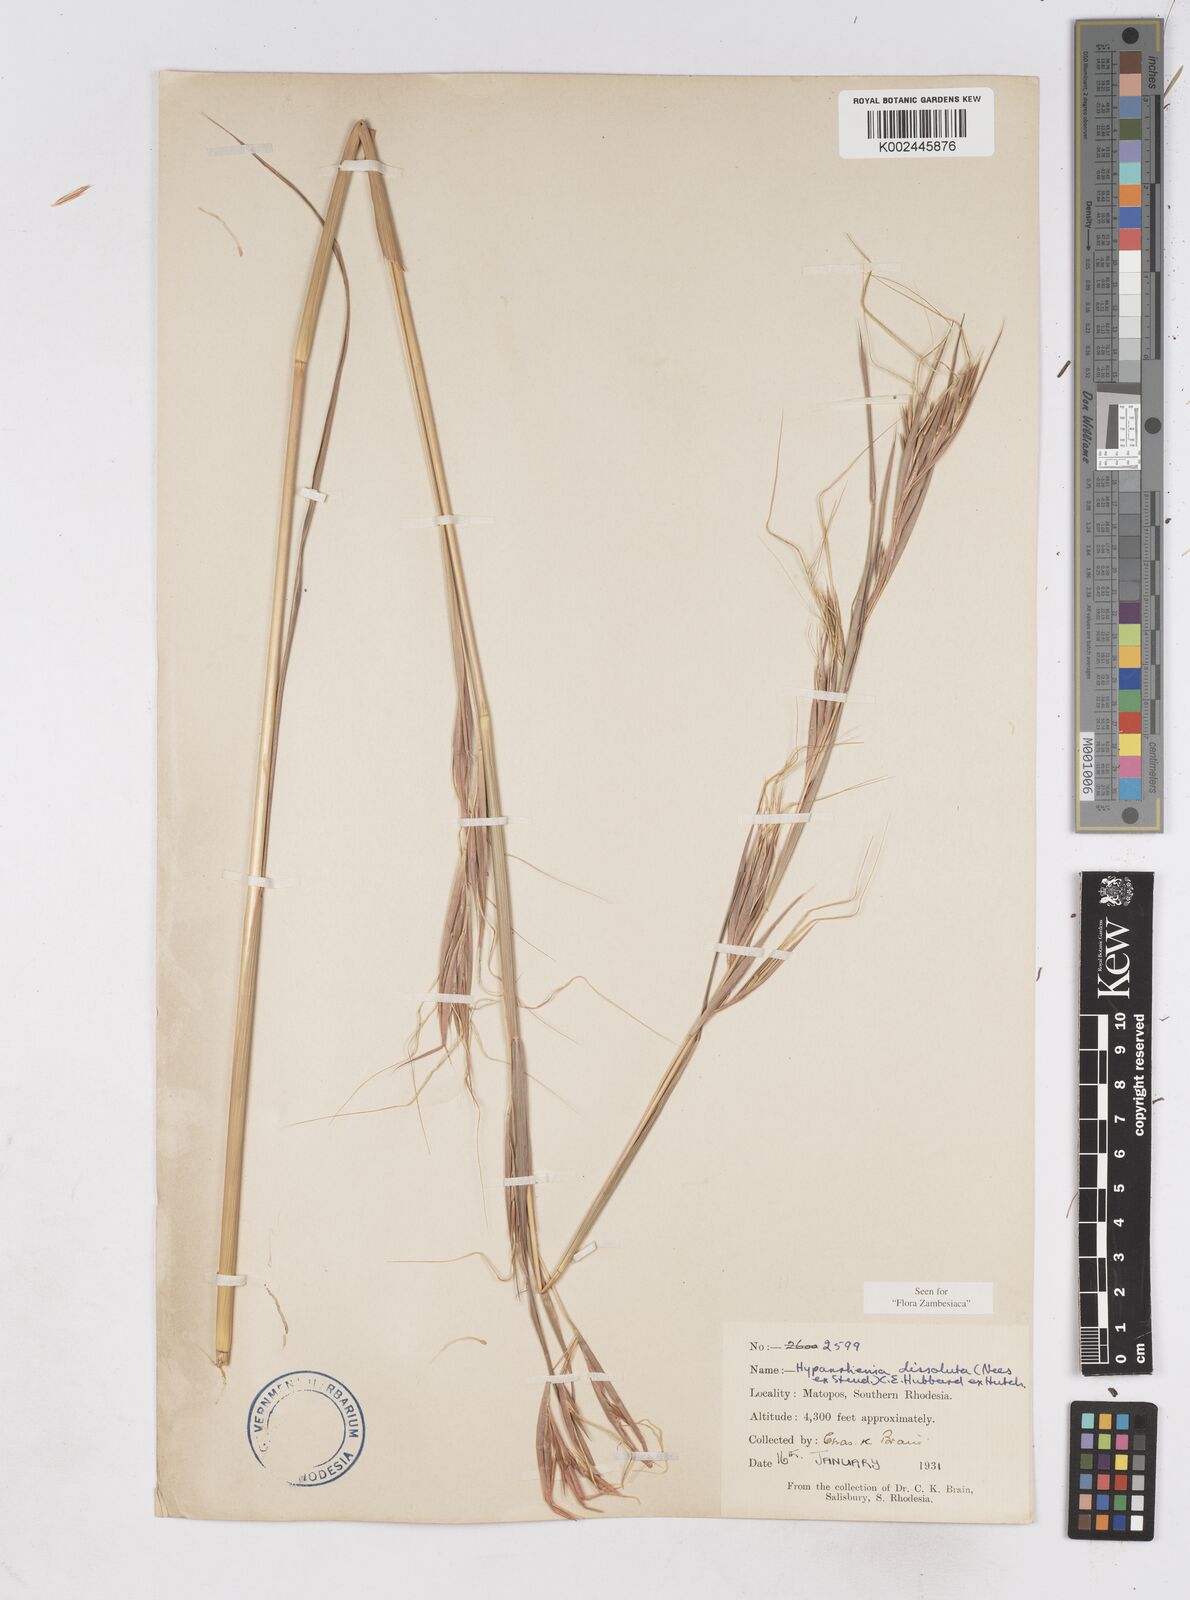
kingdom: Plantae
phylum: Tracheophyta
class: Liliopsida
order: Poales
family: Poaceae
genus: Hyperthelia
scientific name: Hyperthelia dissoluta
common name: Yellow thatching grass
